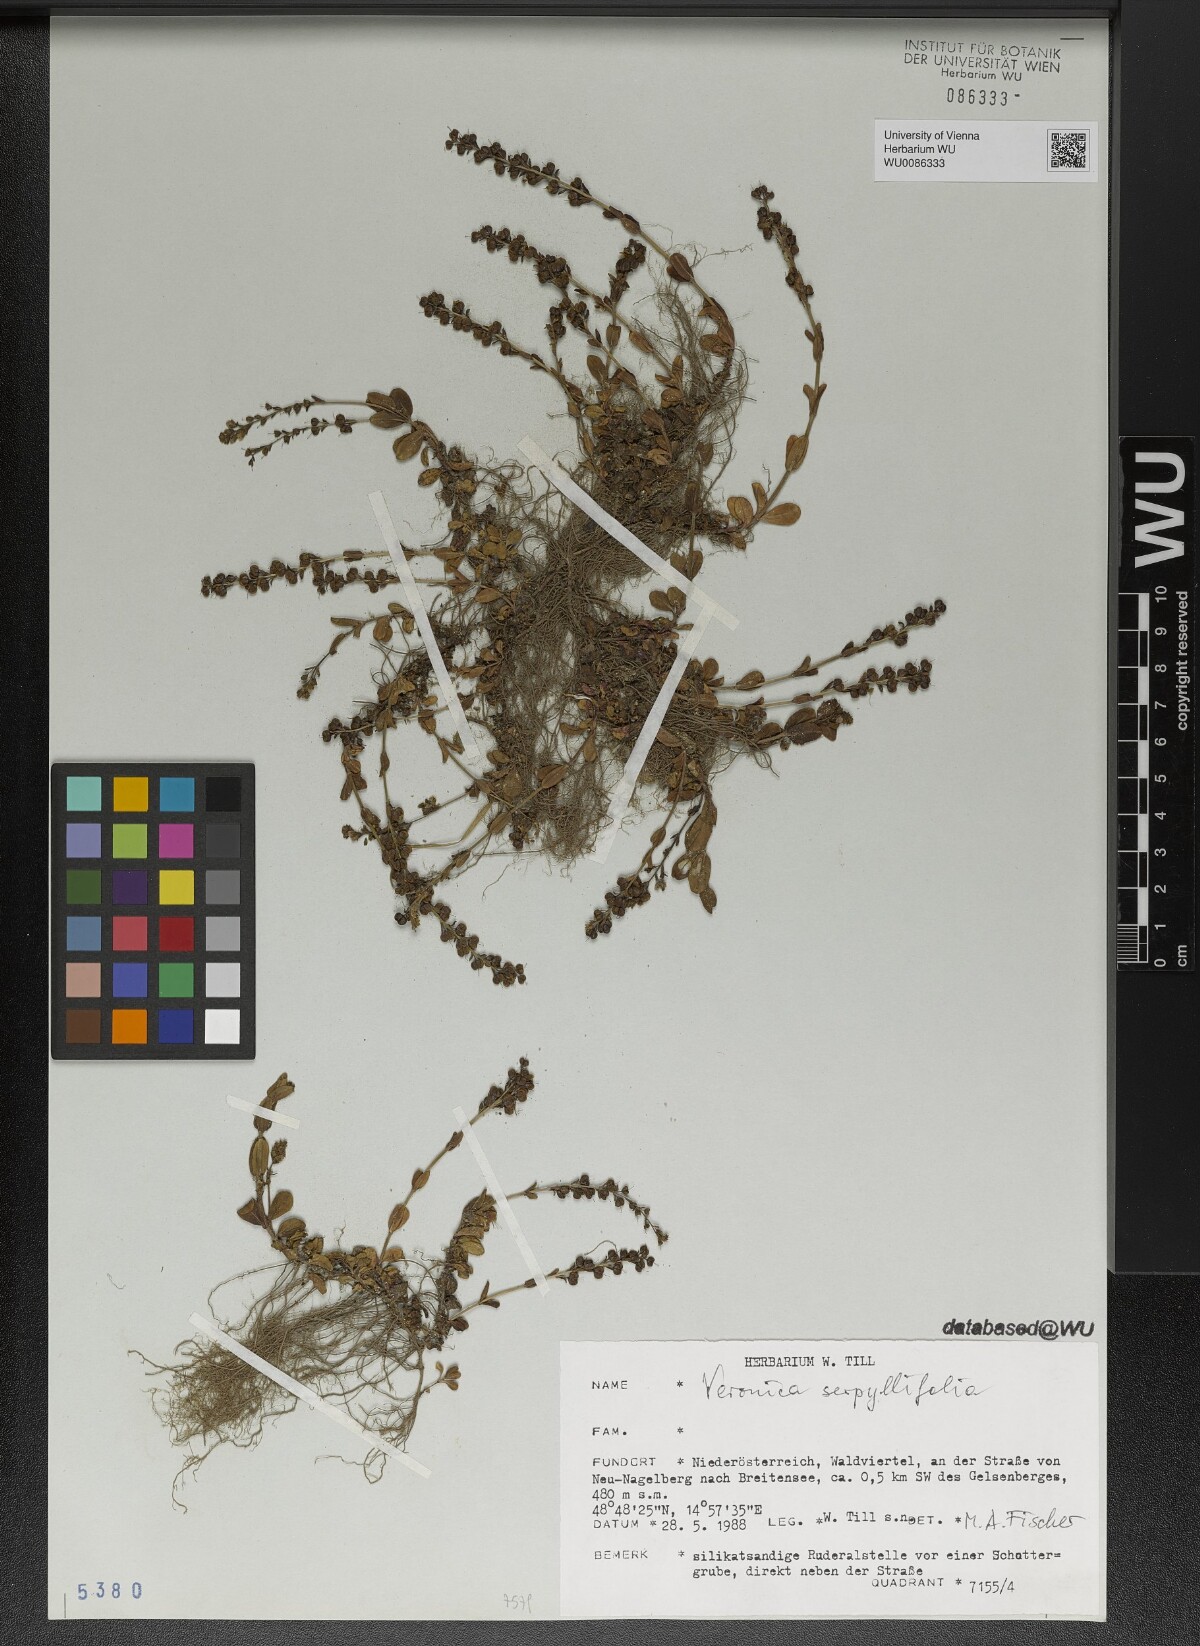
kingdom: Plantae
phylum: Tracheophyta
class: Magnoliopsida
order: Lamiales
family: Plantaginaceae
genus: Veronica
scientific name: Veronica serpyllifolia
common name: Thyme-leaved speedwell
